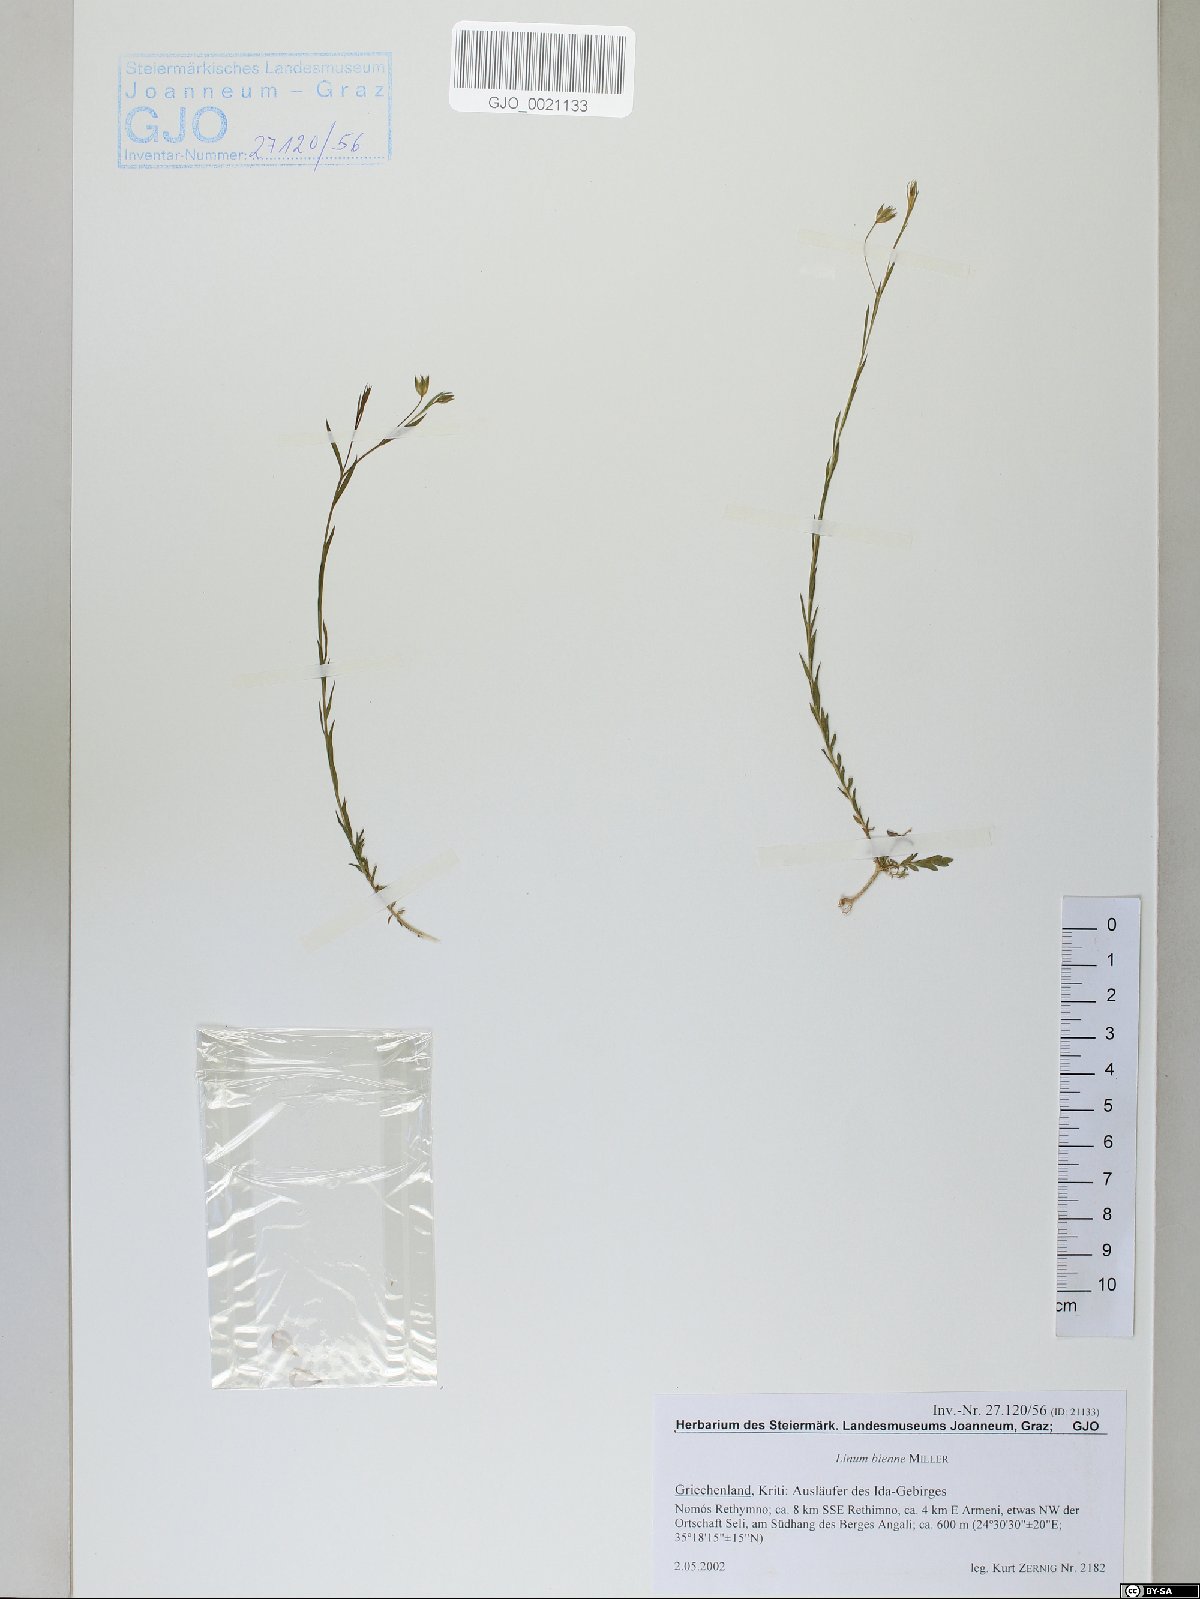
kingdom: Plantae
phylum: Tracheophyta
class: Magnoliopsida
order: Malpighiales
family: Linaceae
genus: Linum
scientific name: Linum bienne
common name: Pale flax
